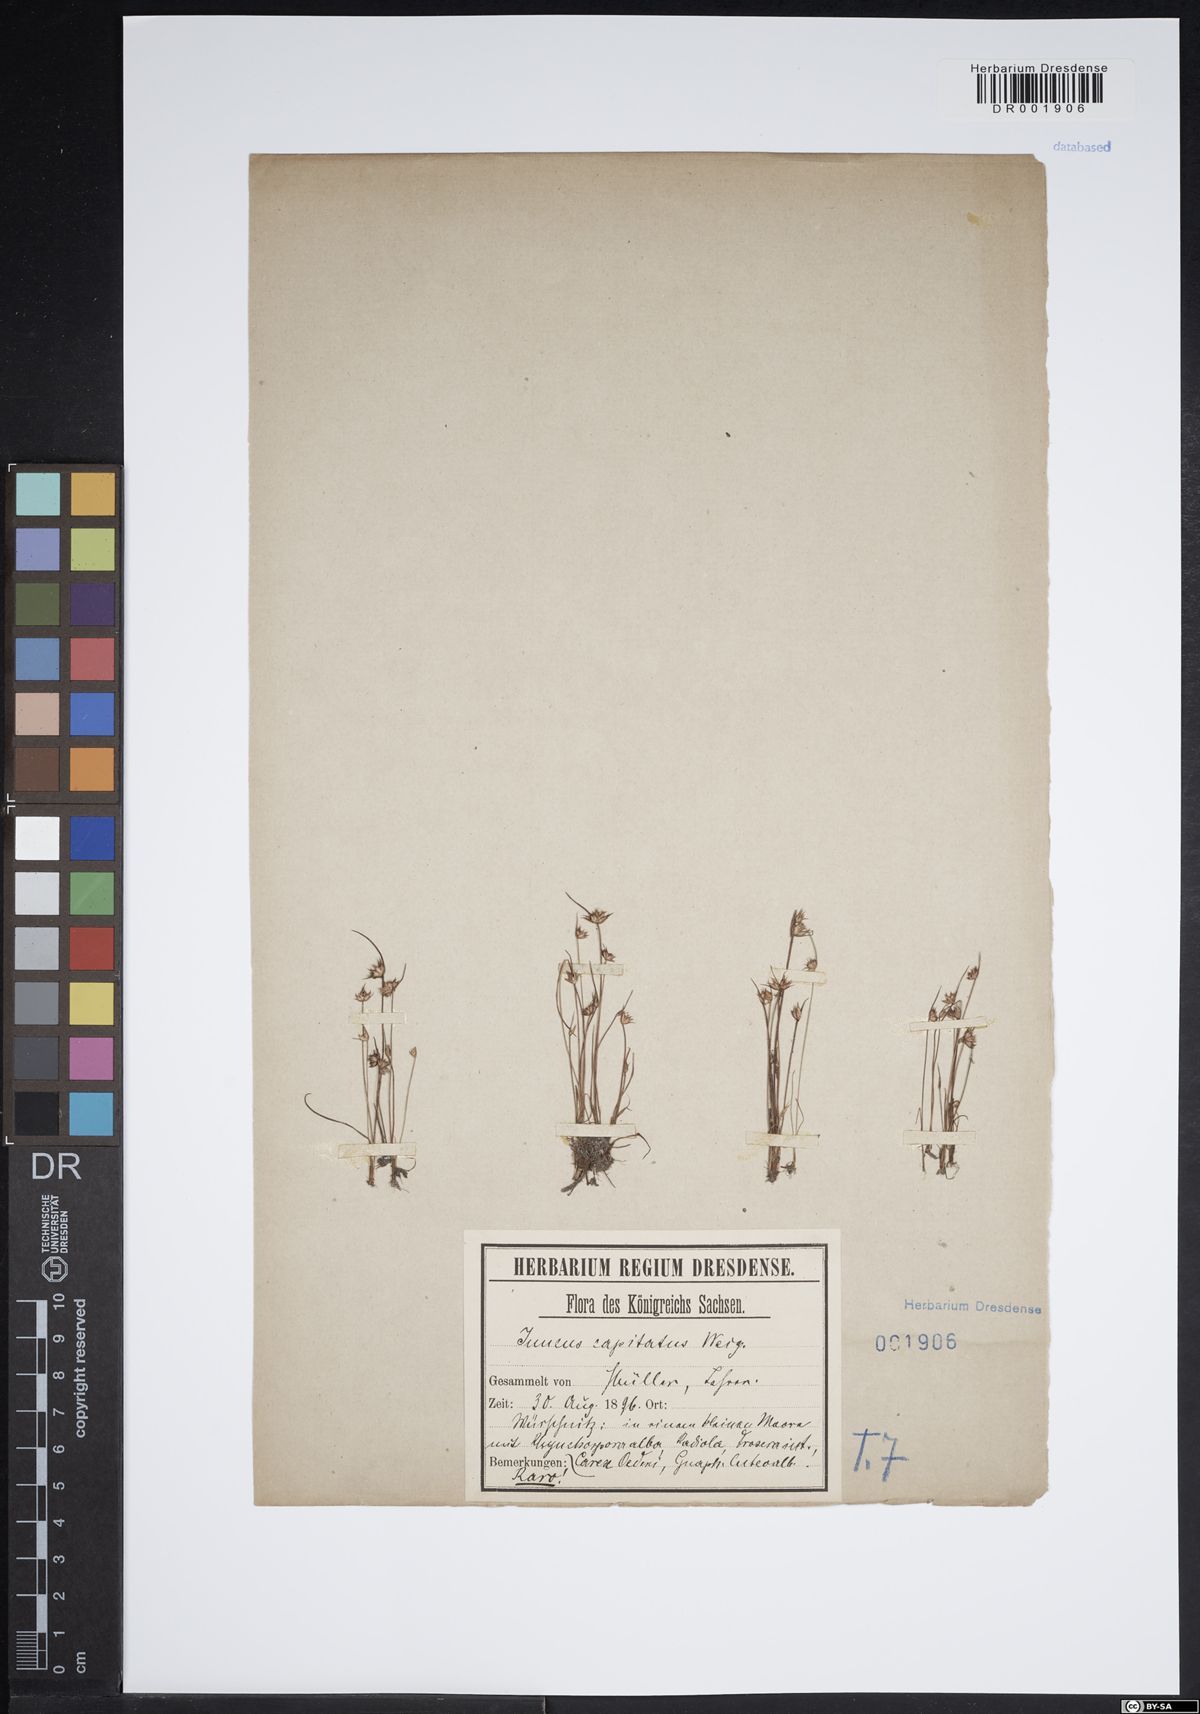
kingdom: Plantae
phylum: Tracheophyta
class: Liliopsida
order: Poales
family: Juncaceae
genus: Juncus
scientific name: Juncus capitatus
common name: Dwarf rush
